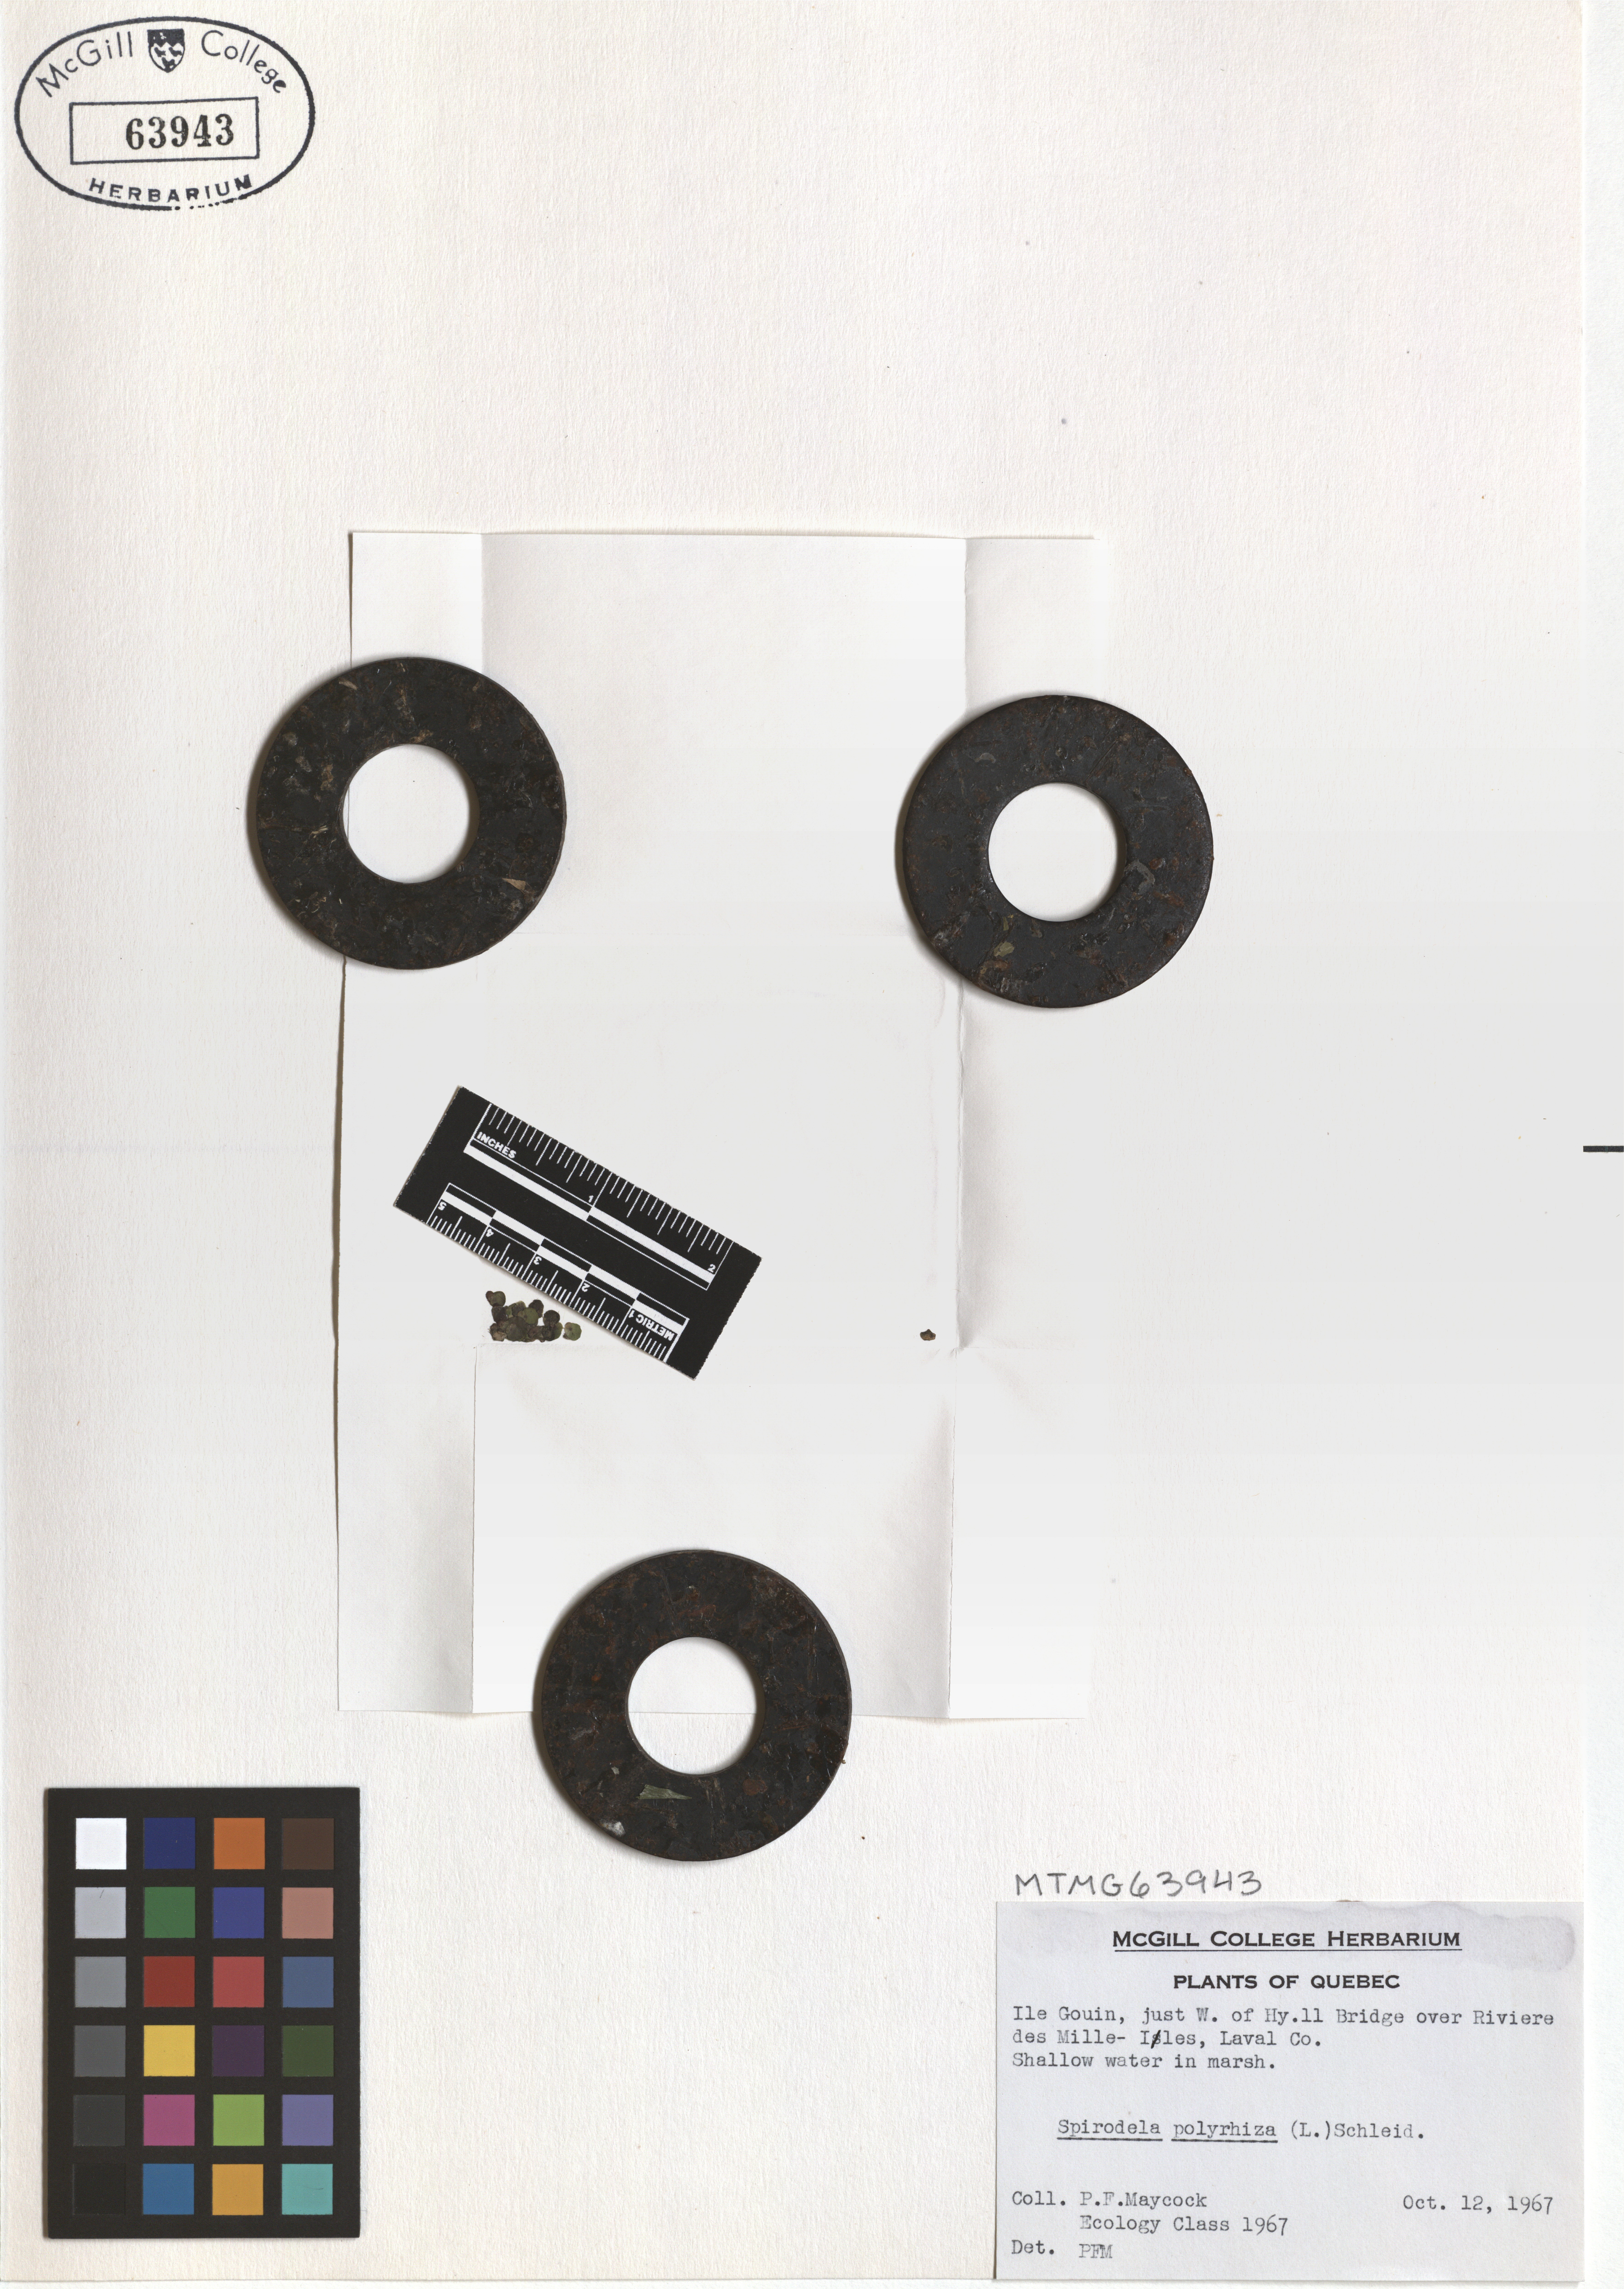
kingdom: Plantae
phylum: Tracheophyta
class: Liliopsida
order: Alismatales
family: Araceae
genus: Spirodela
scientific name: Spirodela polyrhiza
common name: Great duckweed
